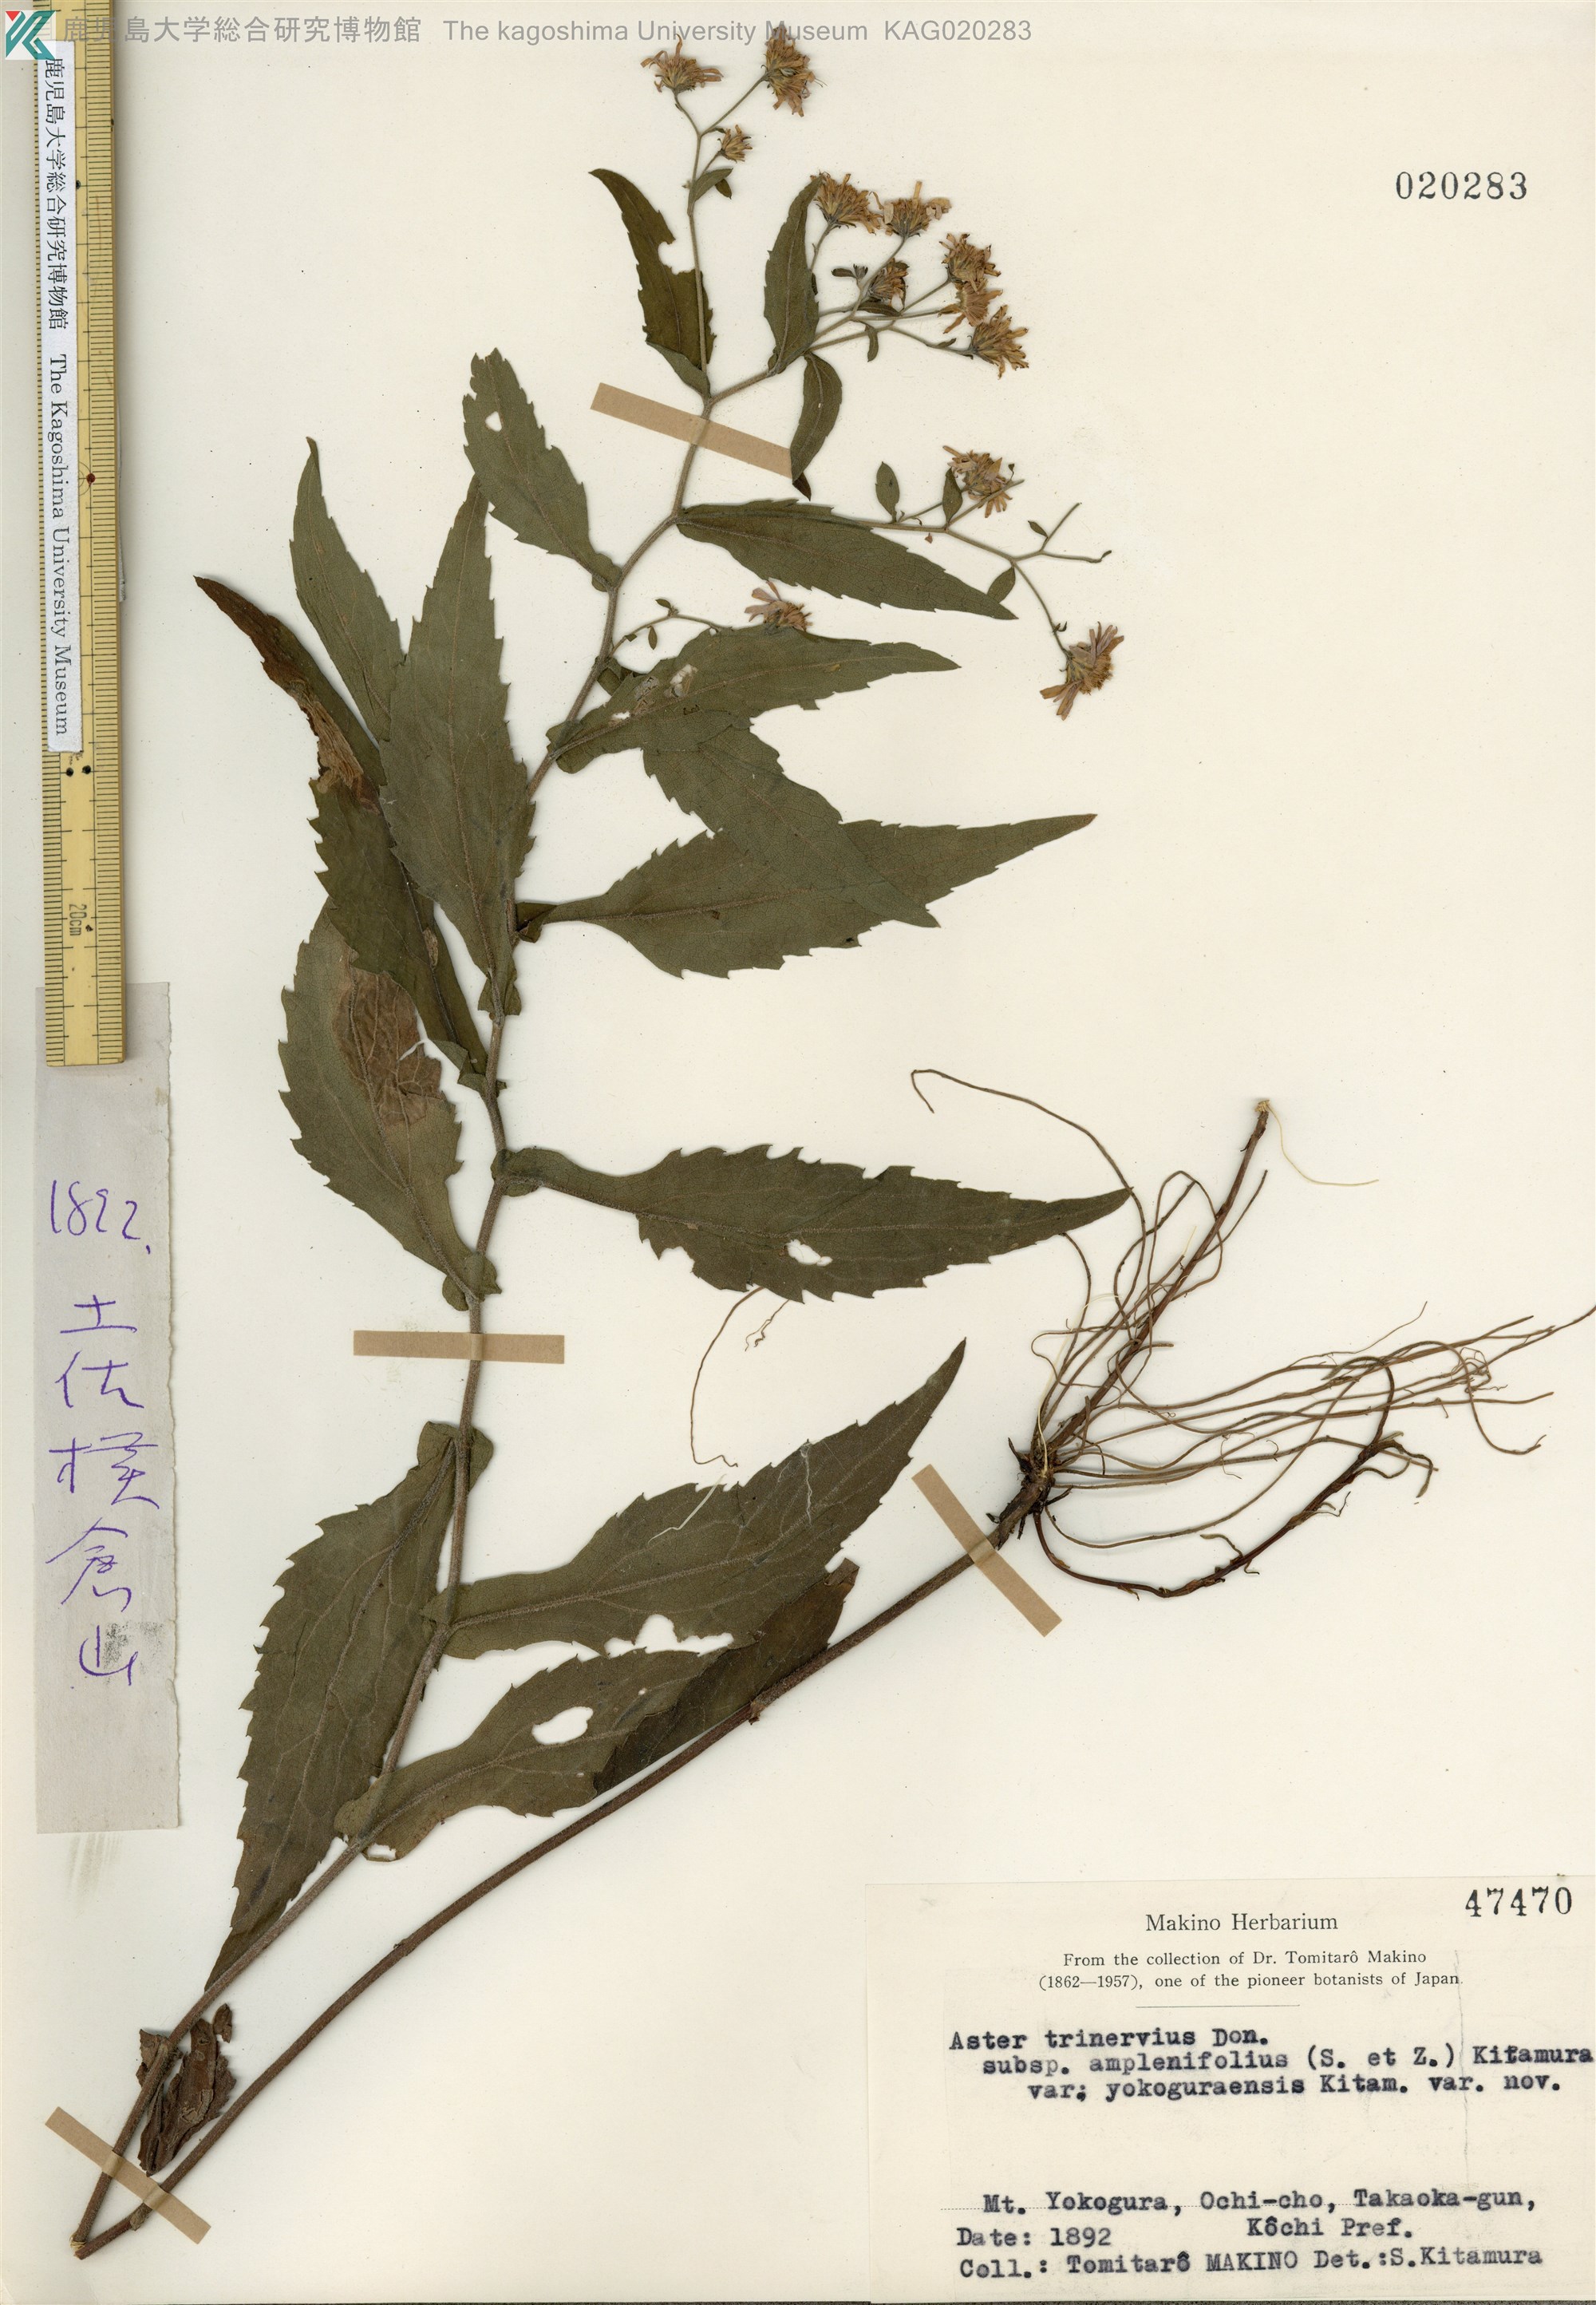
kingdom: Plantae
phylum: Tracheophyta
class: Magnoliopsida
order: Asterales
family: Asteraceae
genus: Aster
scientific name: Aster ageratoides
